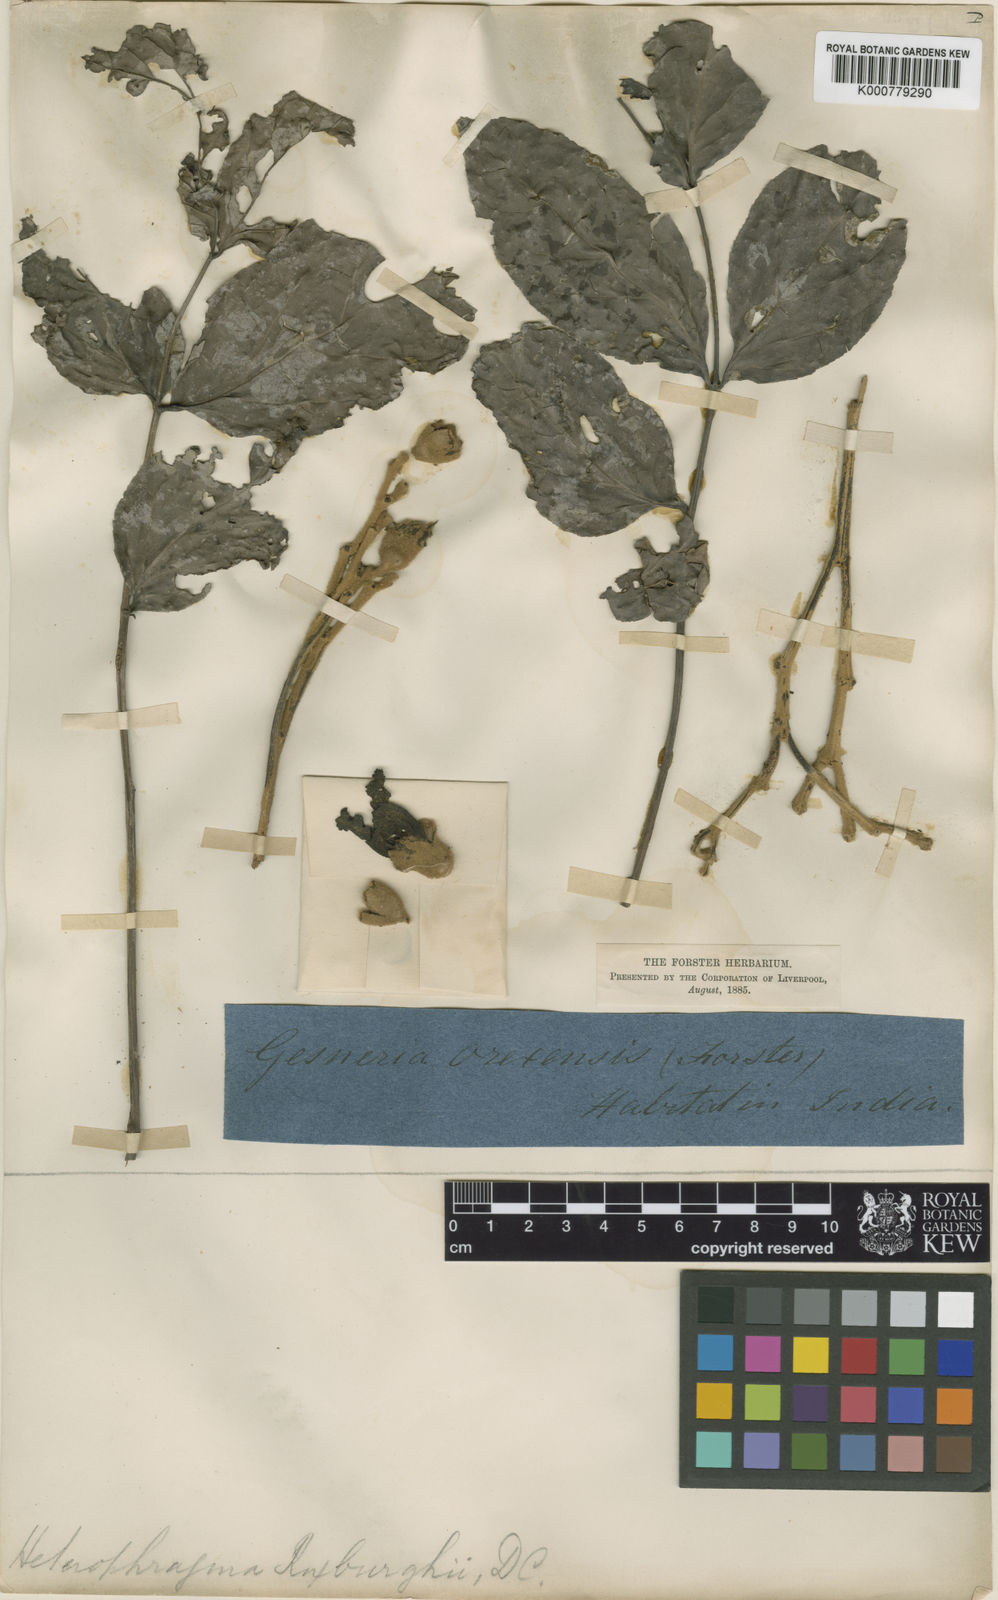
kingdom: Plantae
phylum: Tracheophyta
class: Magnoliopsida
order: Lamiales
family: Bignoniaceae
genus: Heterophragma
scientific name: Heterophragma quadriloculare
